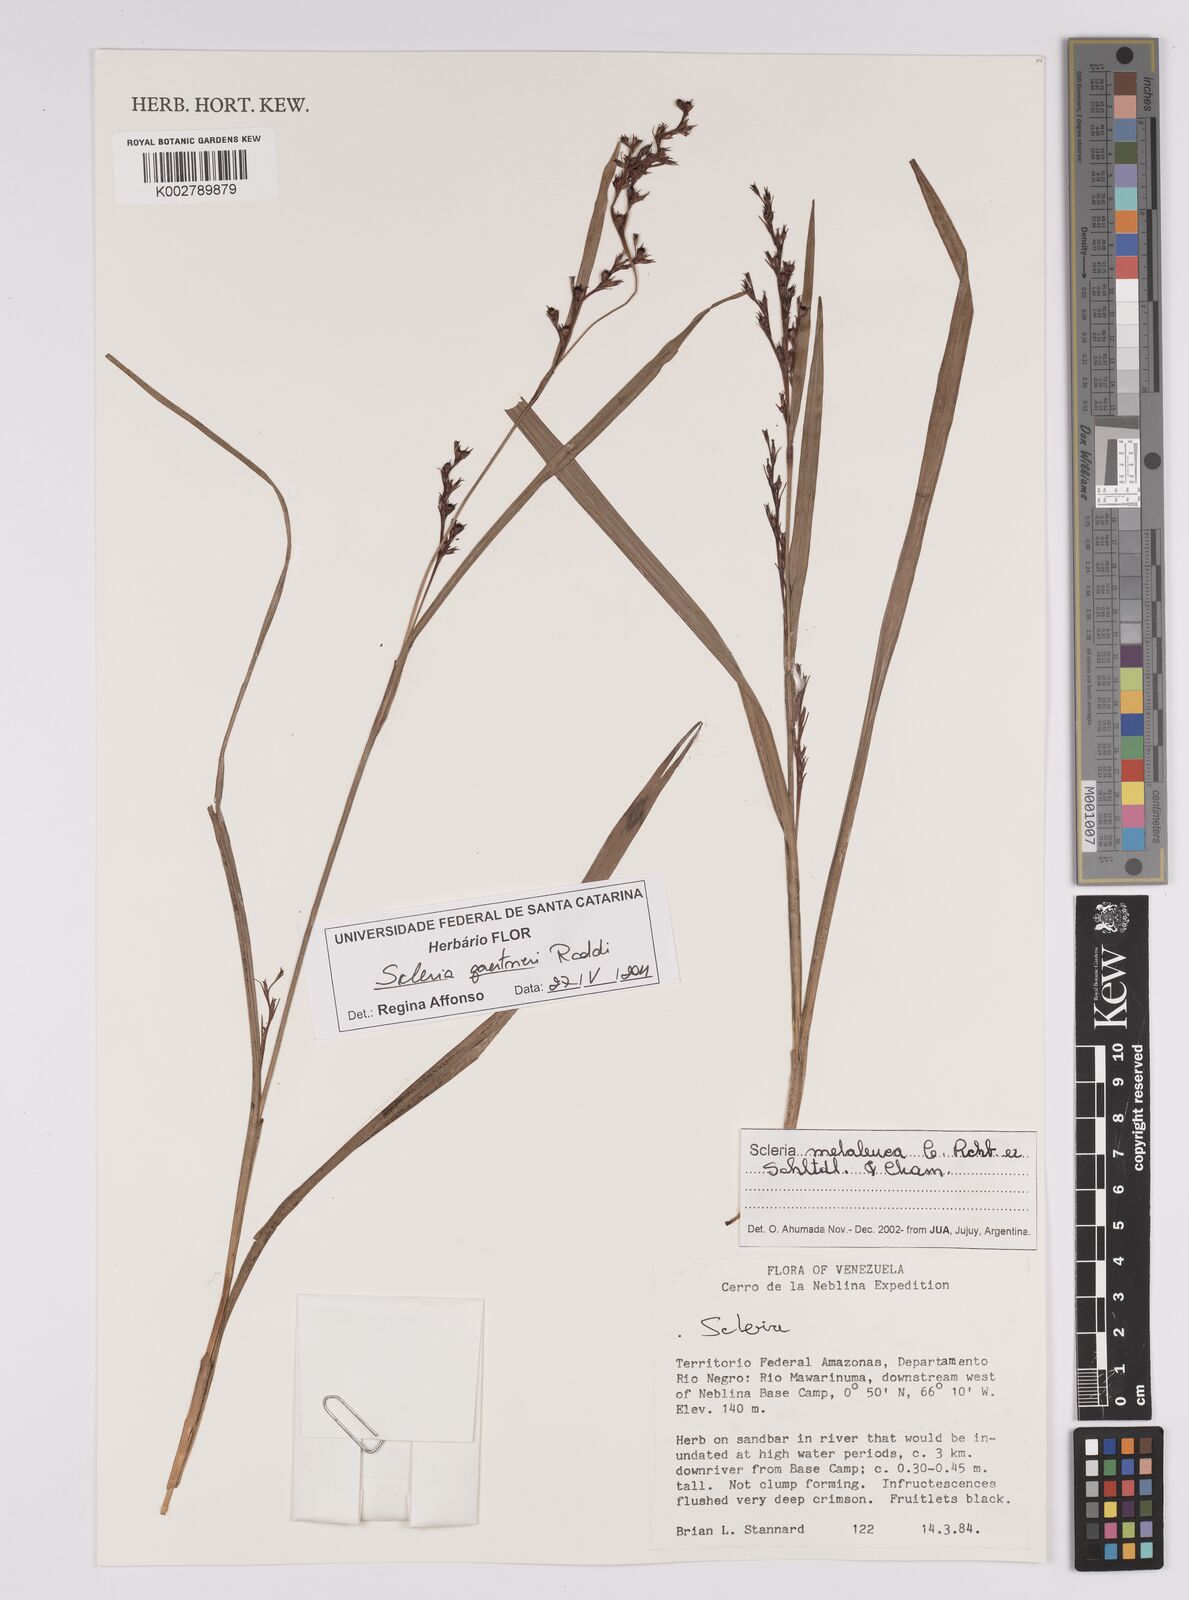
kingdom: Plantae
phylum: Tracheophyta
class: Liliopsida
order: Poales
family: Cyperaceae
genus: Scleria
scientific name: Scleria gaertneri
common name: Cortadera blanca
